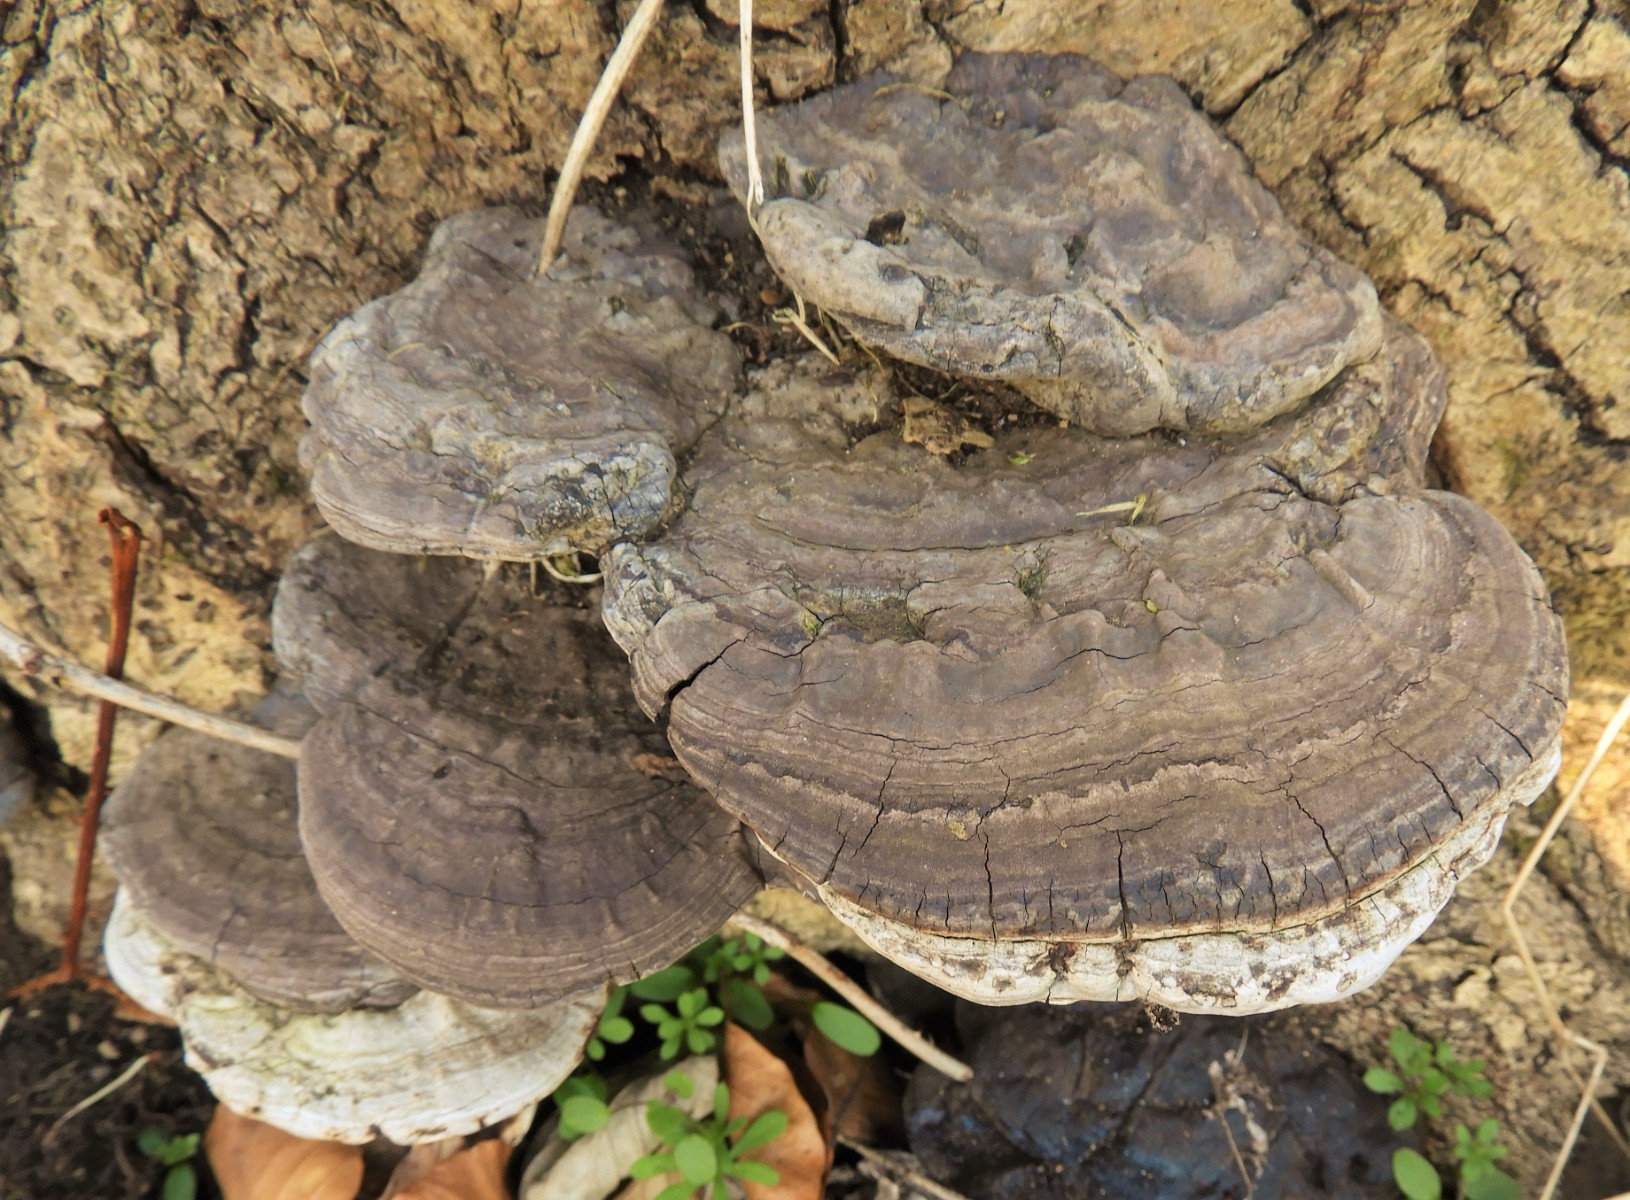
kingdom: Fungi
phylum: Basidiomycota
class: Agaricomycetes
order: Polyporales
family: Polyporaceae
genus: Ganoderma
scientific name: Ganoderma applanatum
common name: flad lakporesvamp
